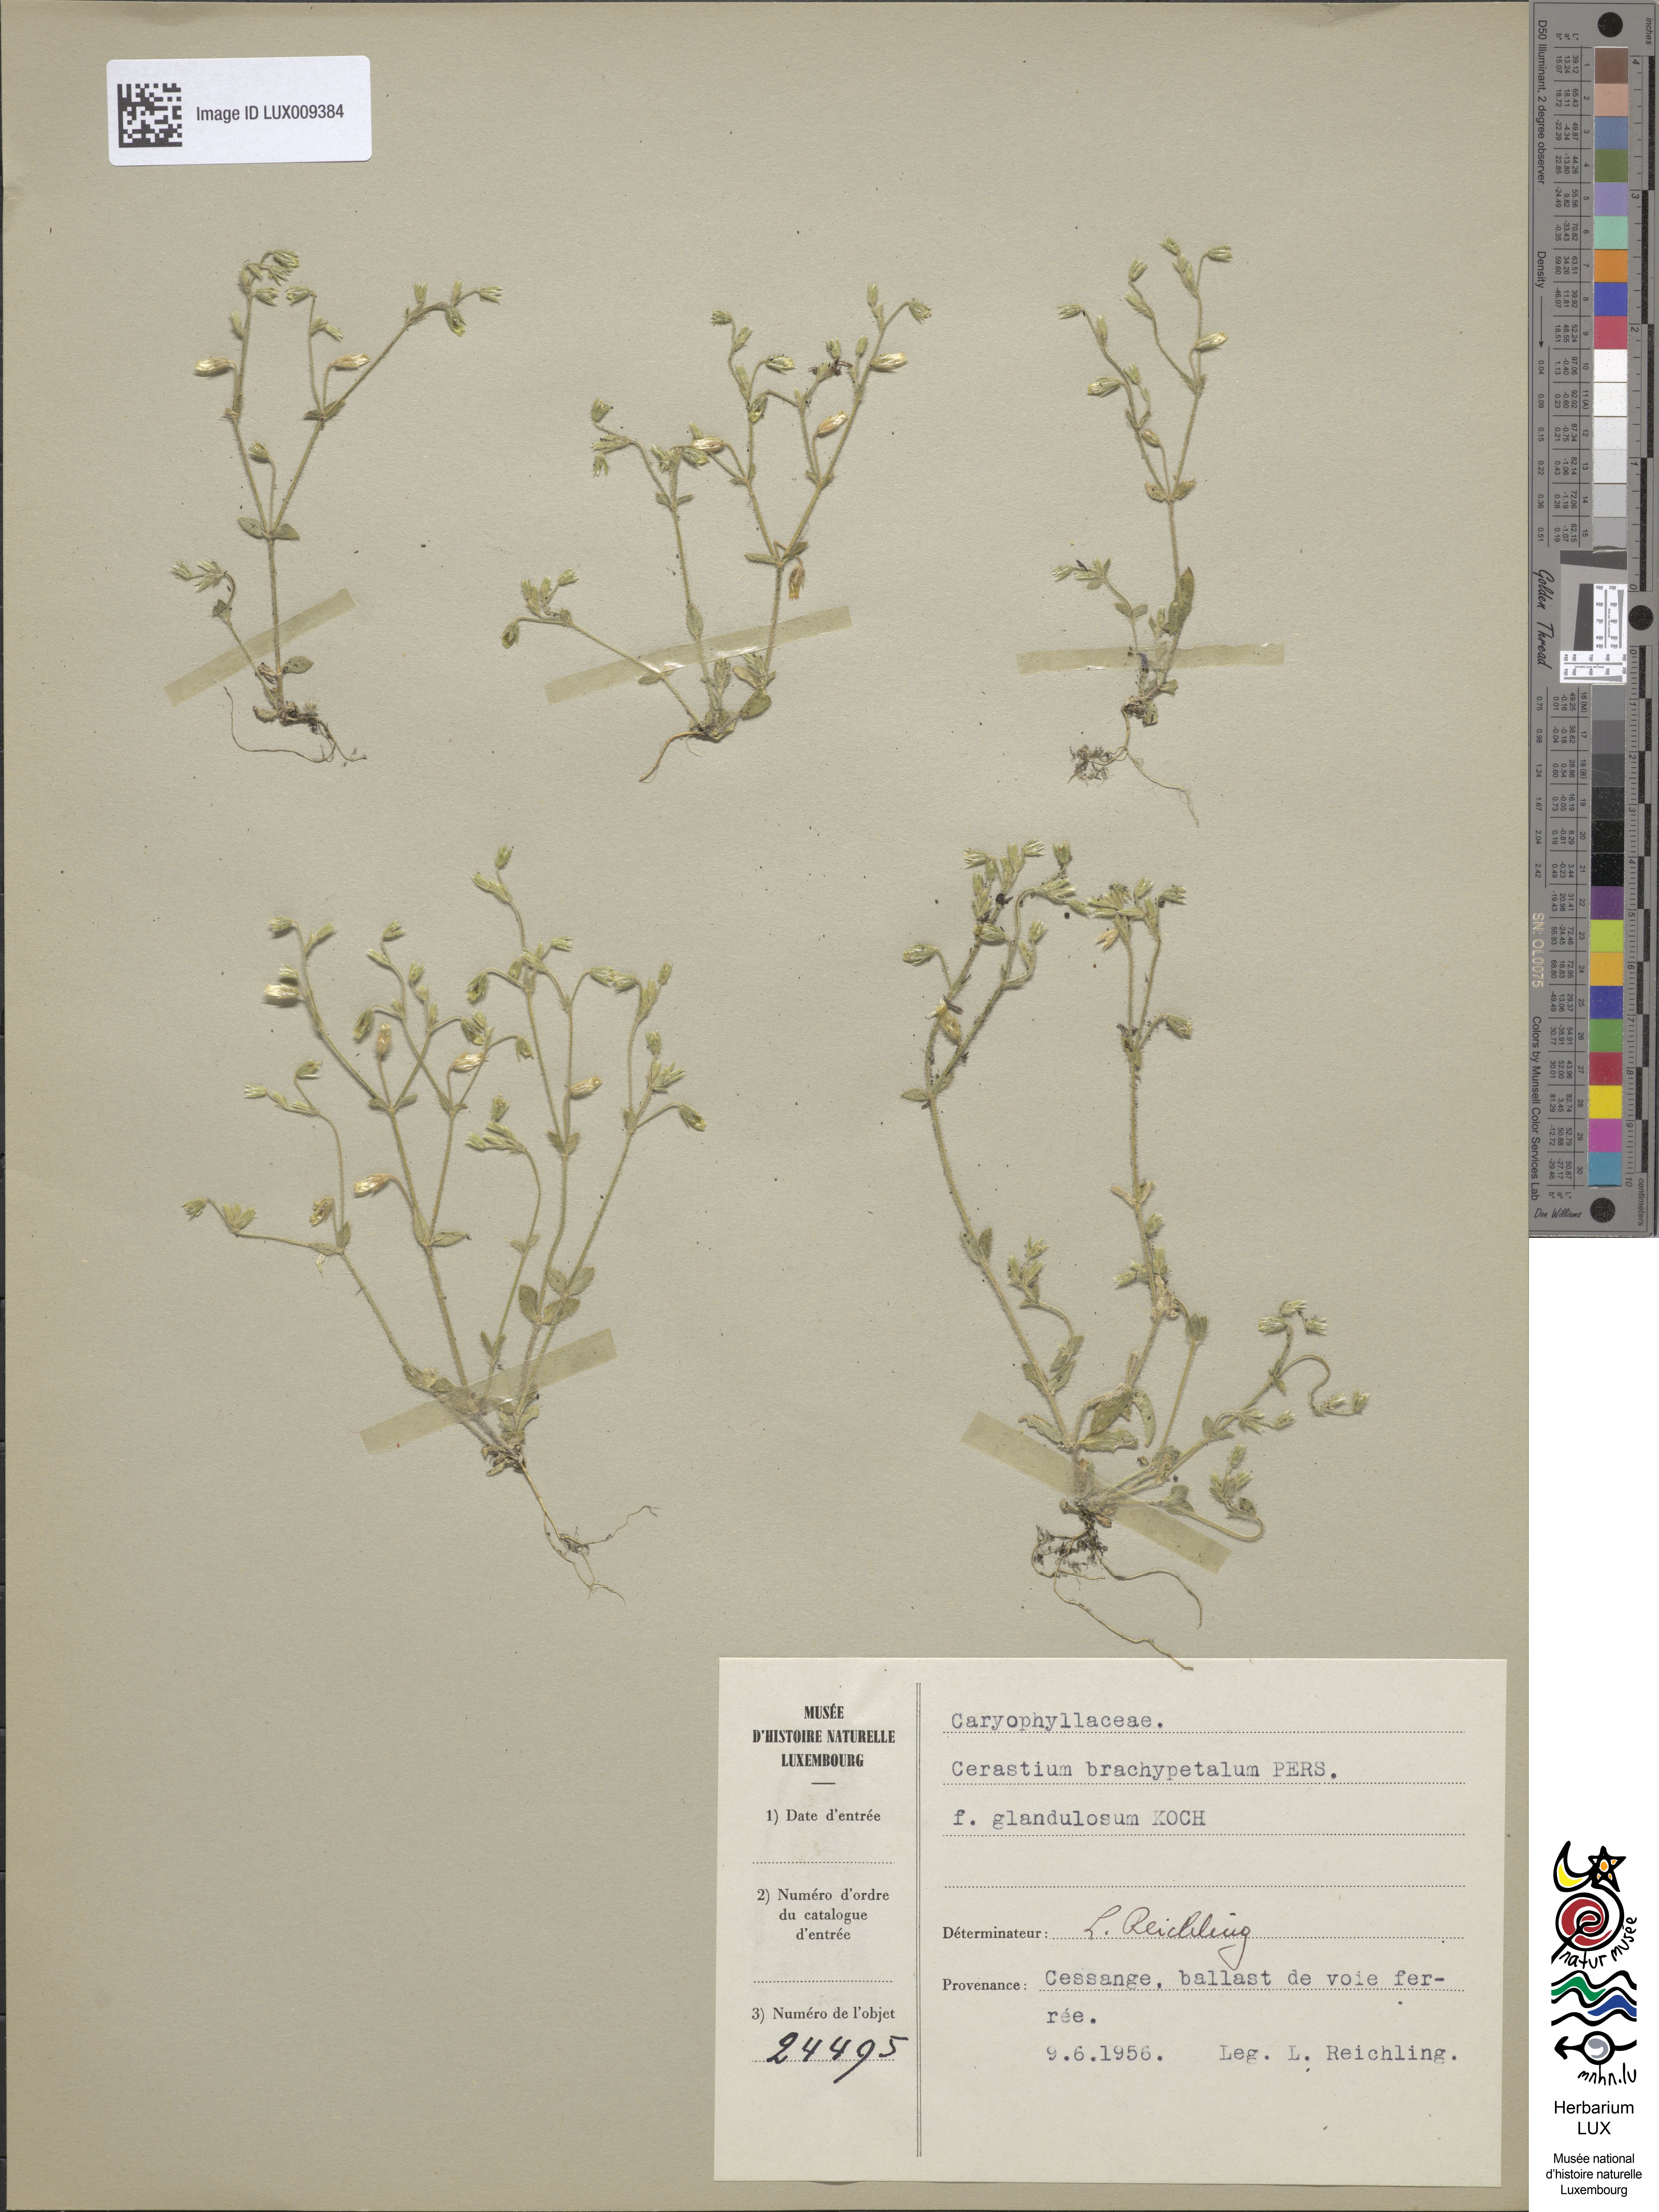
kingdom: Plantae
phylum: Tracheophyta
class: Magnoliopsida
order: Caryophyllales
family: Caryophyllaceae
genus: Cerastium
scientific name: Cerastium brachypetalum
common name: Grey mouse-ear
